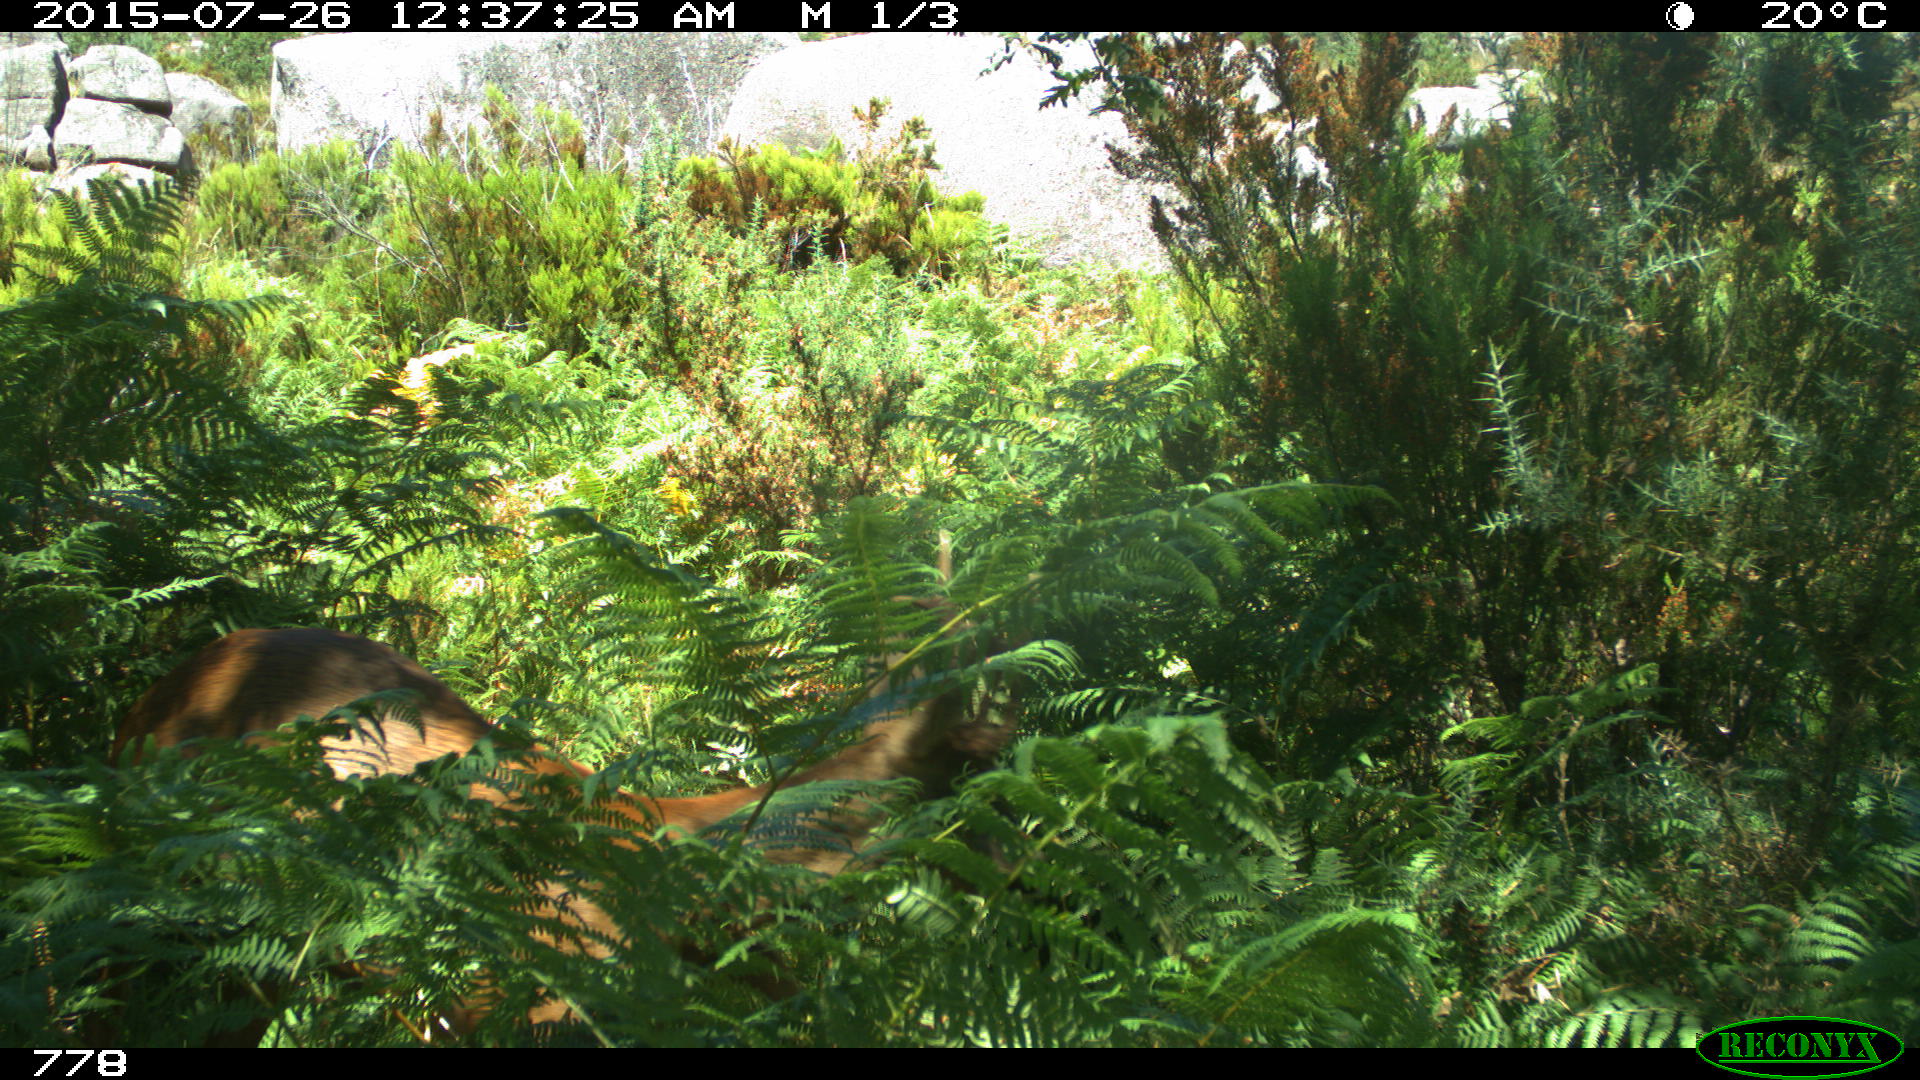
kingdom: Animalia
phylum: Chordata
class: Mammalia
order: Artiodactyla
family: Cervidae
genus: Capreolus
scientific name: Capreolus capreolus
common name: Western roe deer
